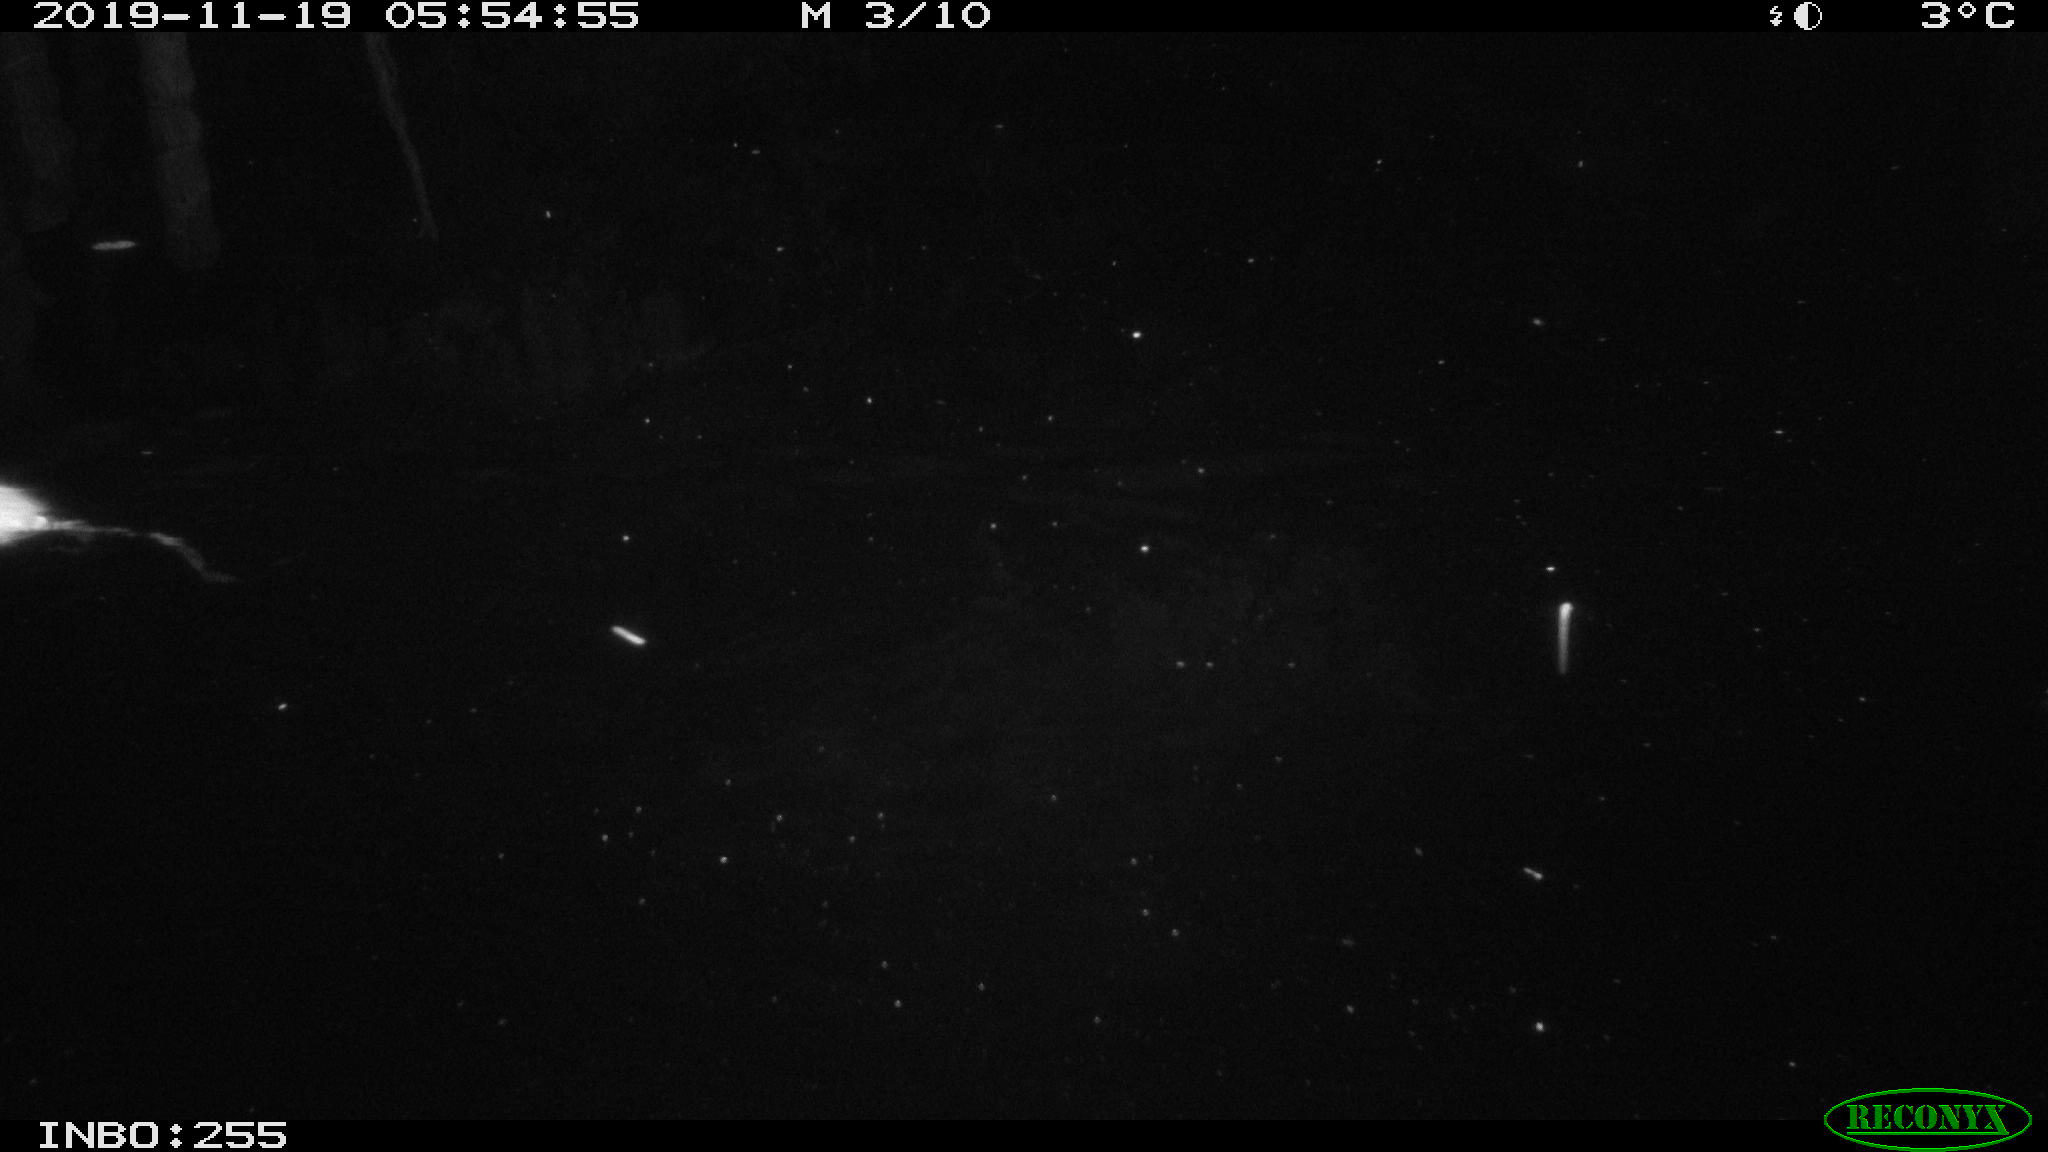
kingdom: Animalia
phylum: Chordata
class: Mammalia
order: Rodentia
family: Muridae
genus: Rattus
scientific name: Rattus norvegicus
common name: Brown rat
